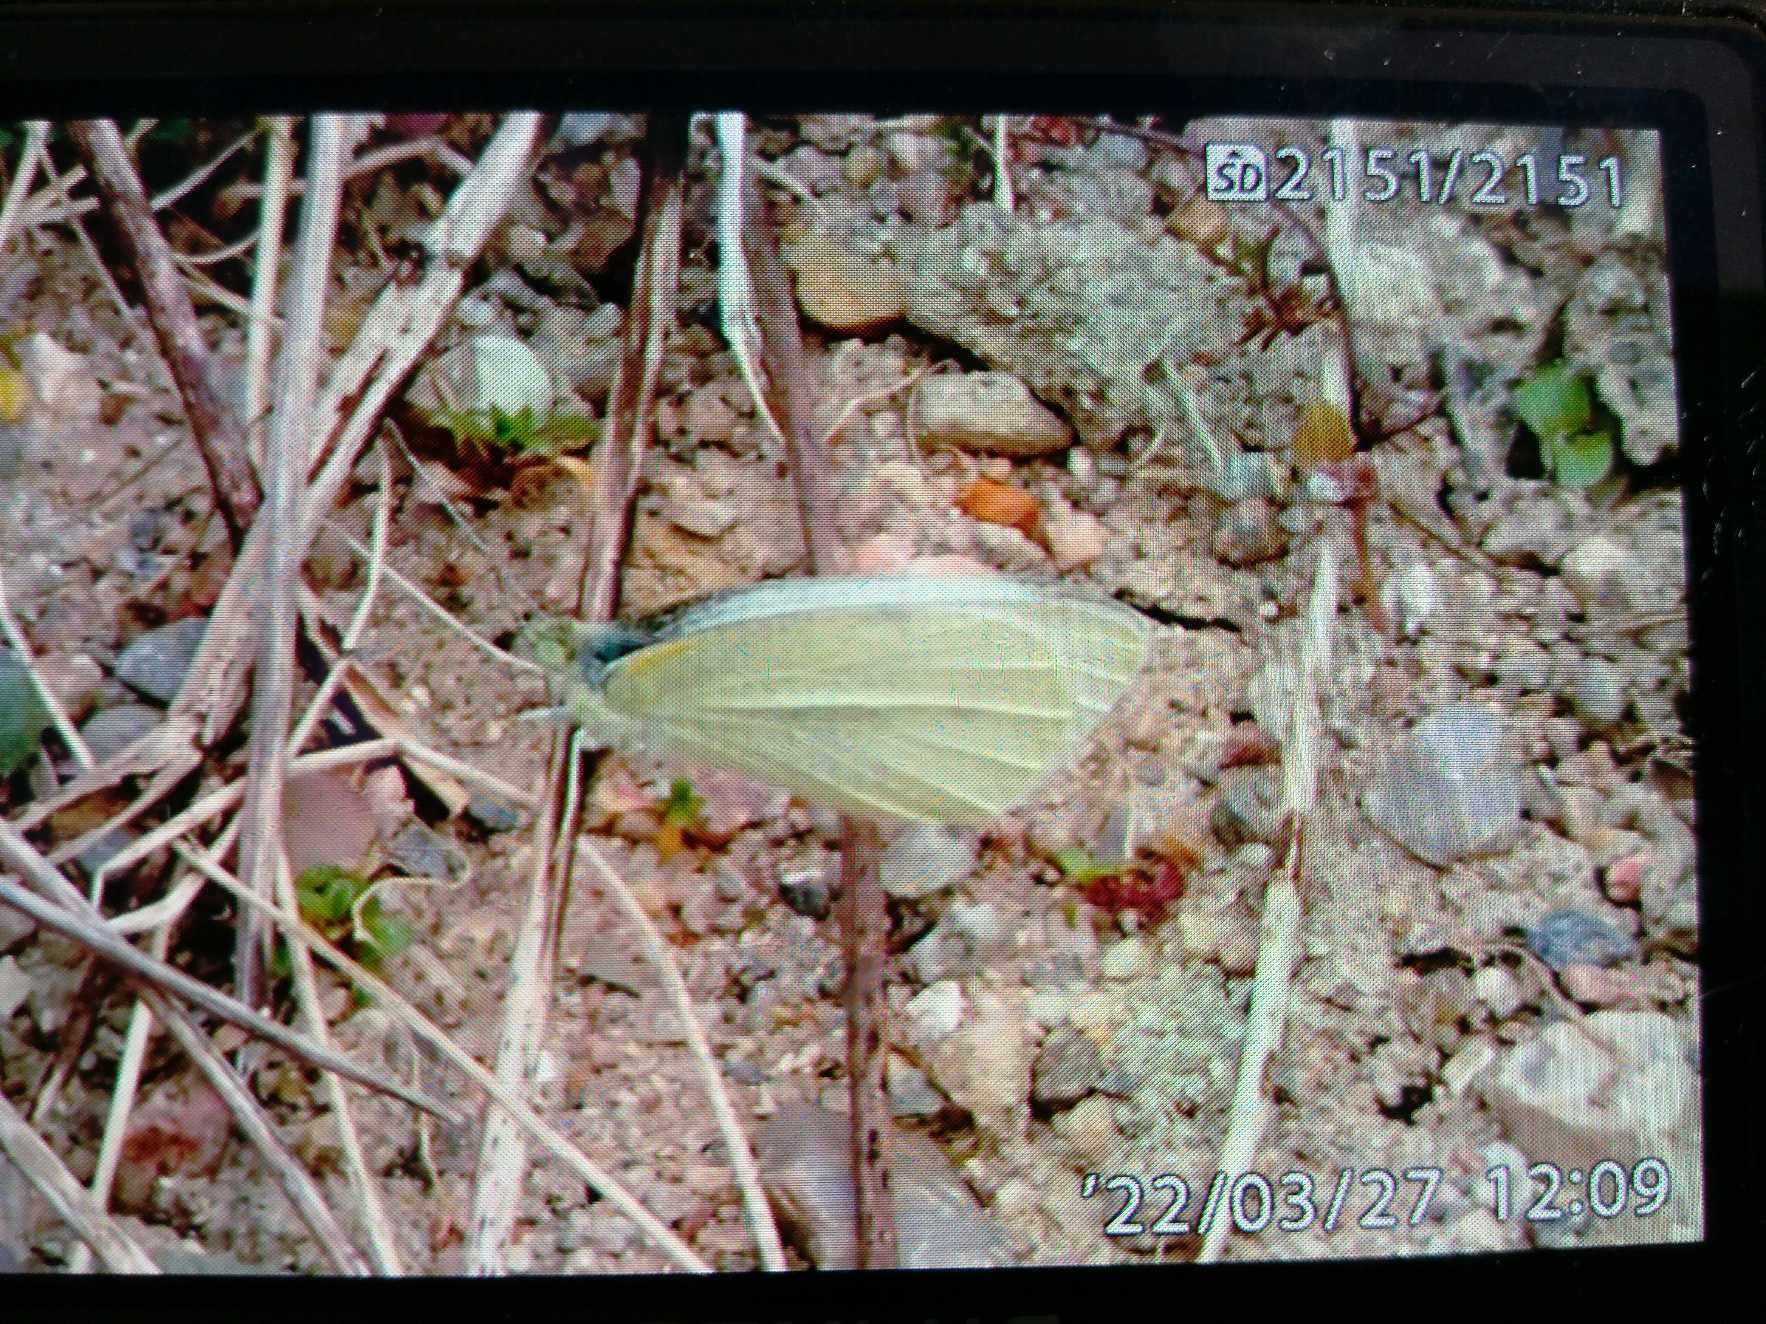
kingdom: Animalia
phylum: Arthropoda
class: Insecta
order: Lepidoptera
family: Pieridae
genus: Pieris
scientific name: Pieris rapae
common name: Lille kålsommerfugl
